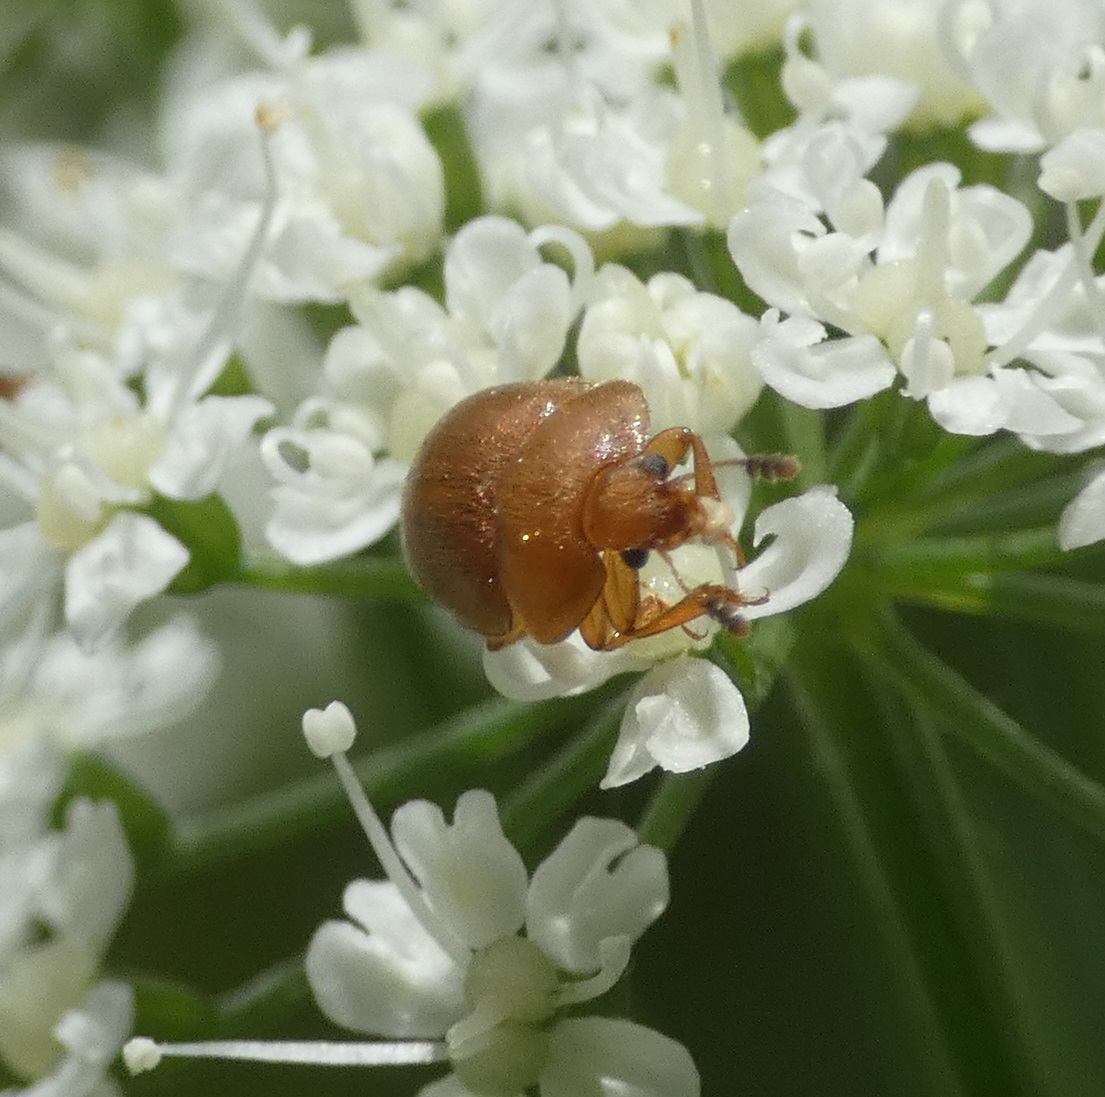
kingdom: Animalia
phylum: Arthropoda
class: Insecta
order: Coleoptera
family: Nitidulidae
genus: Cychramus
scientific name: Cychramus luteus
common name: Blomsterkøllebille
